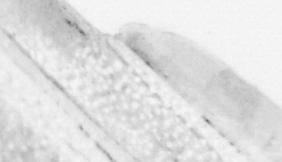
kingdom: Animalia
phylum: Chordata
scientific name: Chordata
